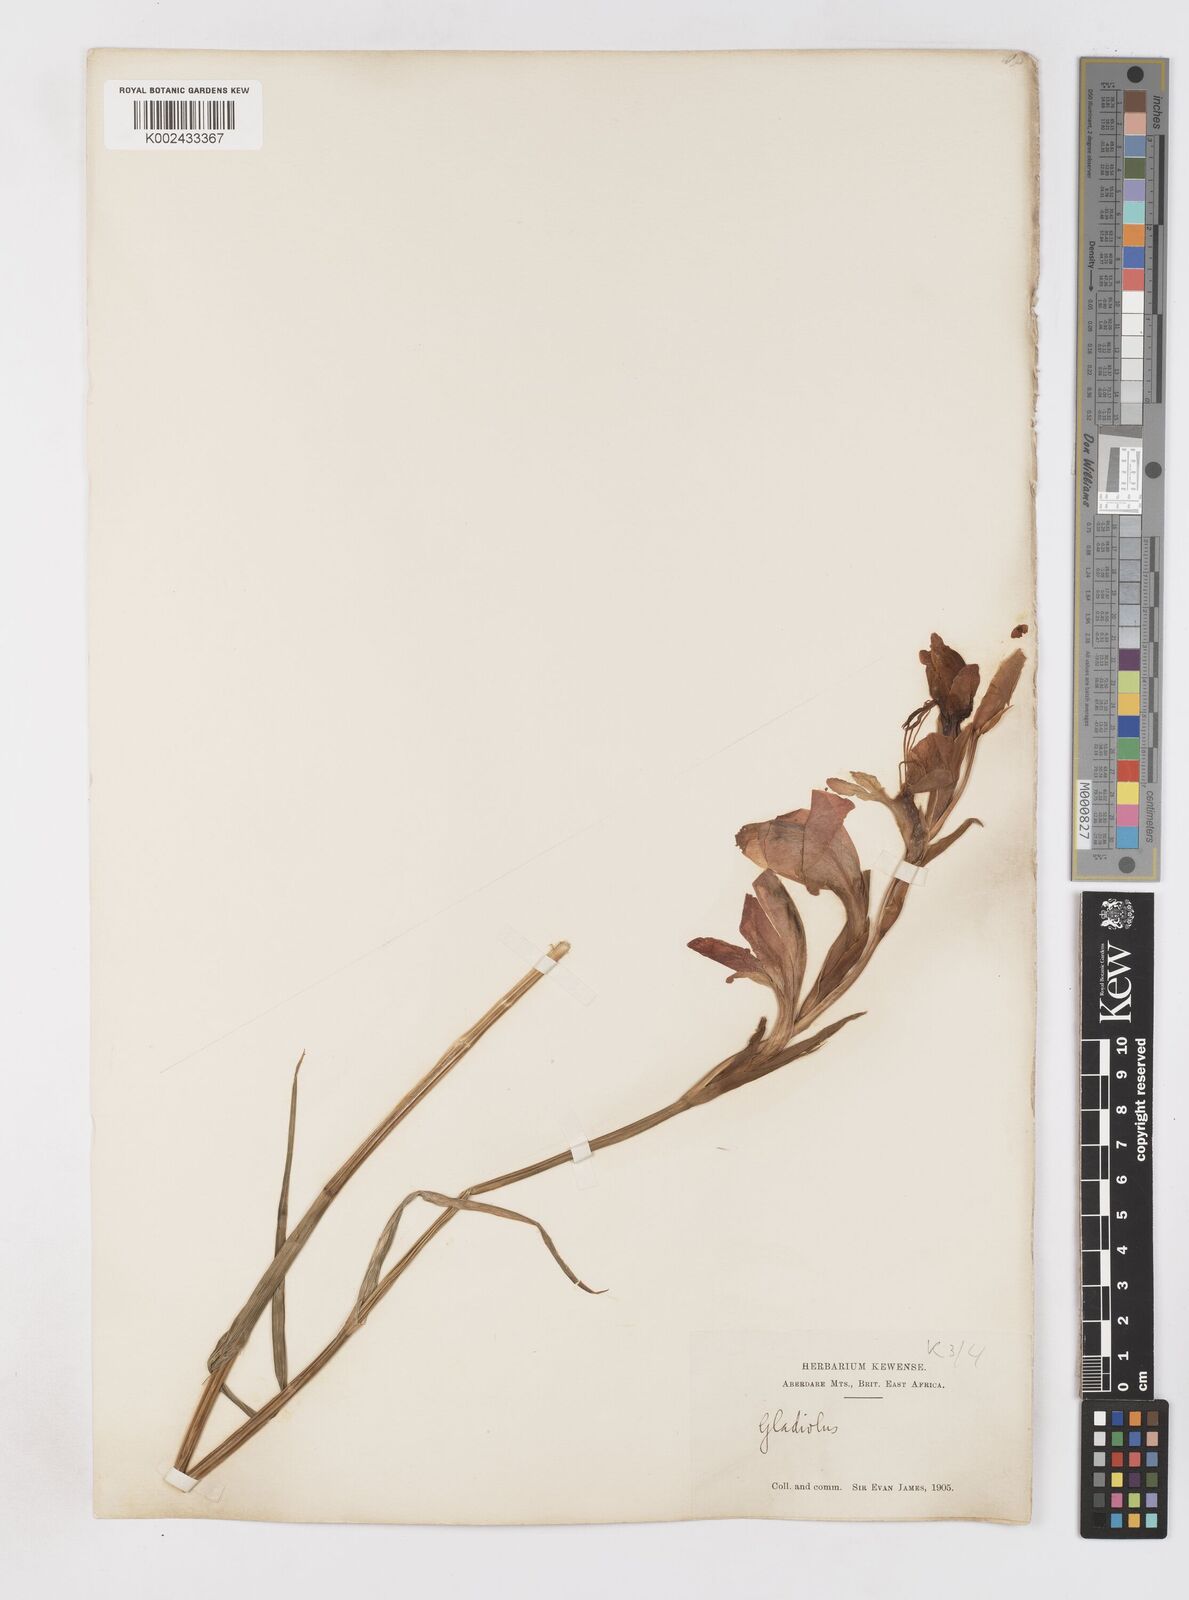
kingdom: Plantae
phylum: Tracheophyta
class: Liliopsida
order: Asparagales
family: Iridaceae
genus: Gladiolus
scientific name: Gladiolus dalenii
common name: Cornflag
